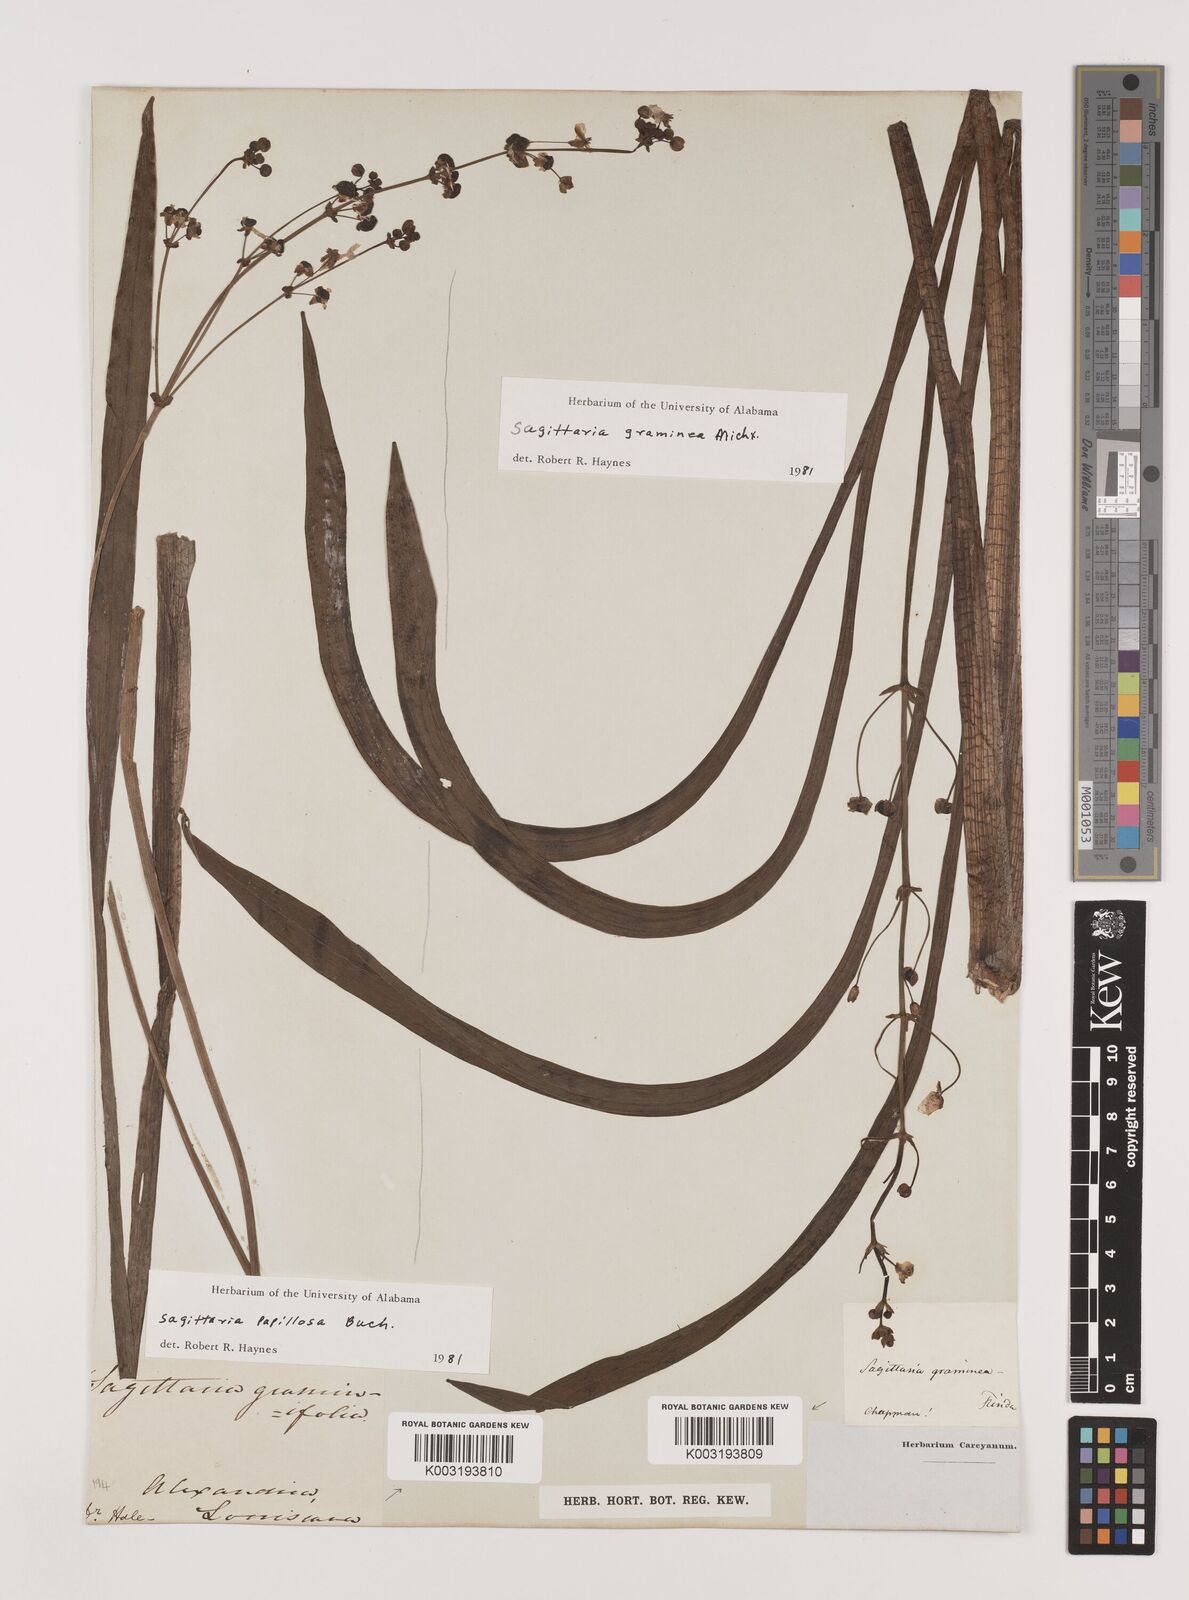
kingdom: Plantae
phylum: Tracheophyta
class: Liliopsida
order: Alismatales
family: Alismataceae
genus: Sagittaria
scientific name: Sagittaria graminea
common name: Grass-leaved arrowhead
